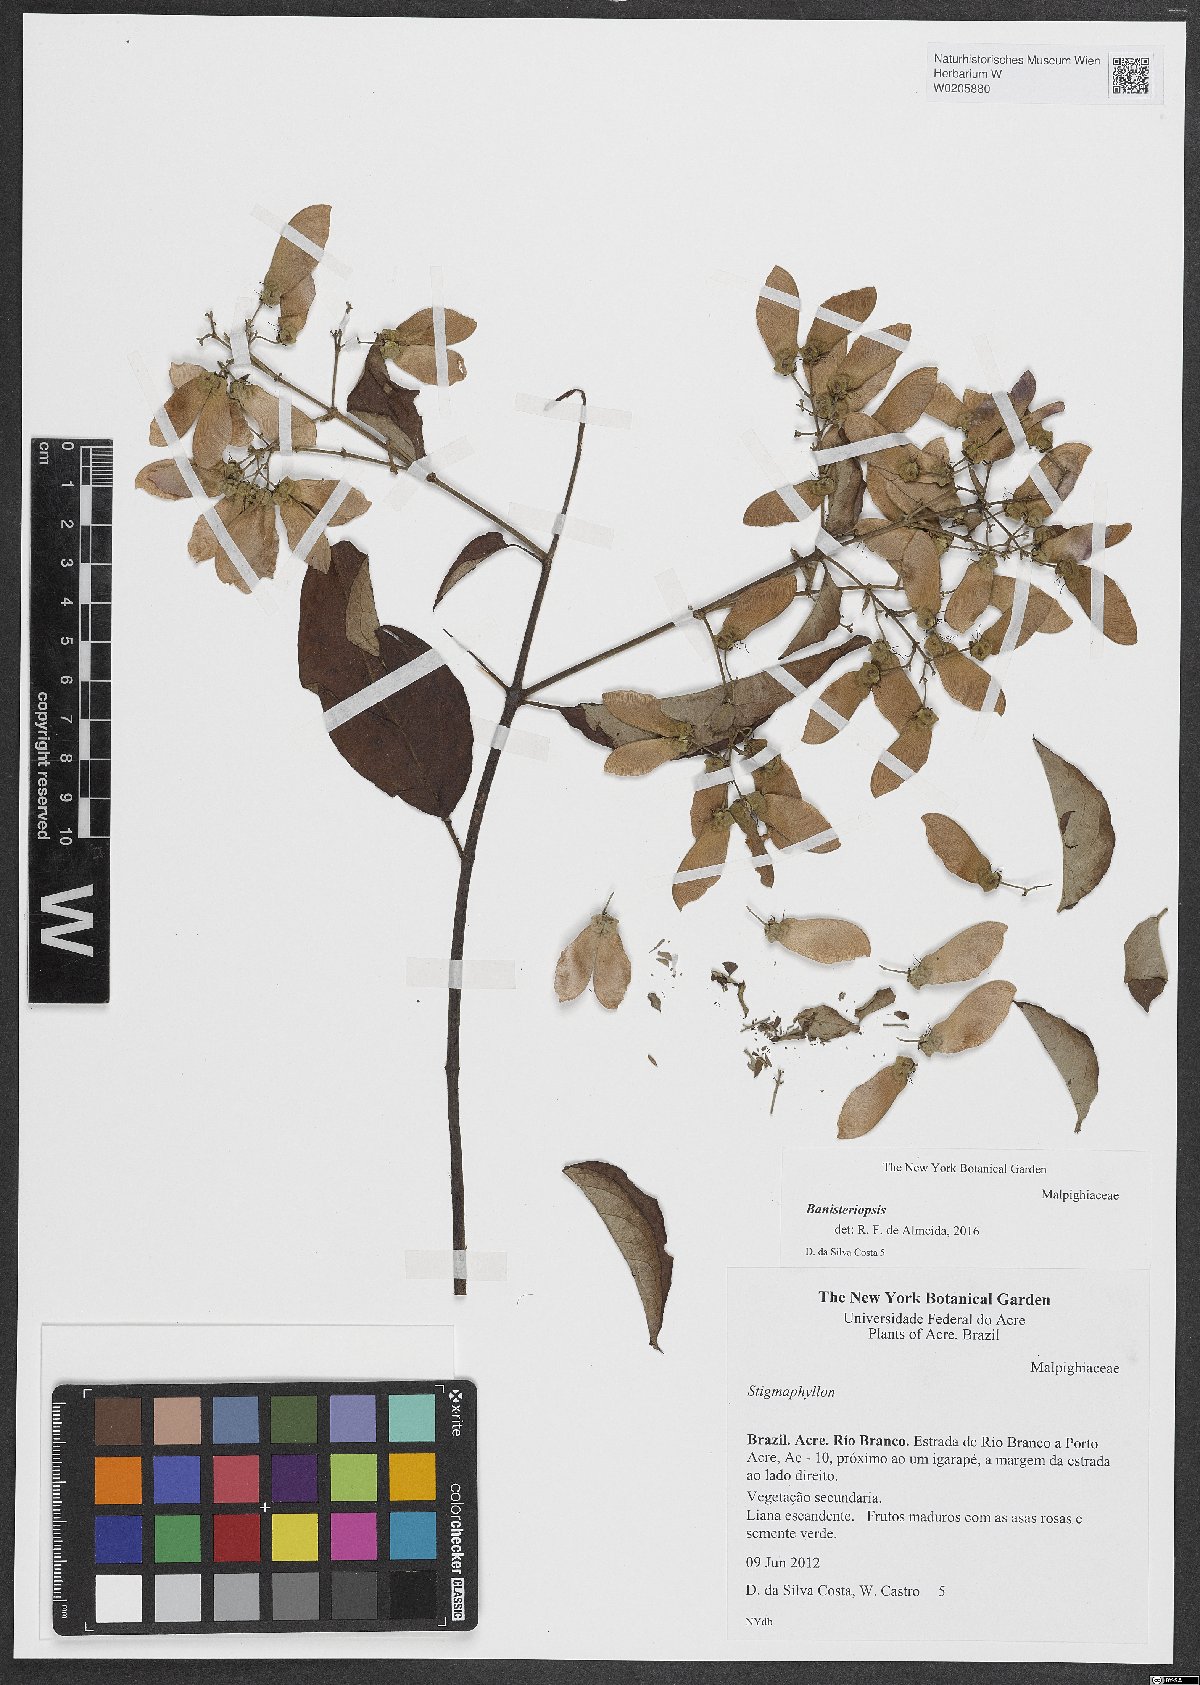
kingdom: Plantae
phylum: Tracheophyta
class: Magnoliopsida
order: Malpighiales
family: Malpighiaceae
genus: Banisteriopsis
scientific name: Banisteriopsis
